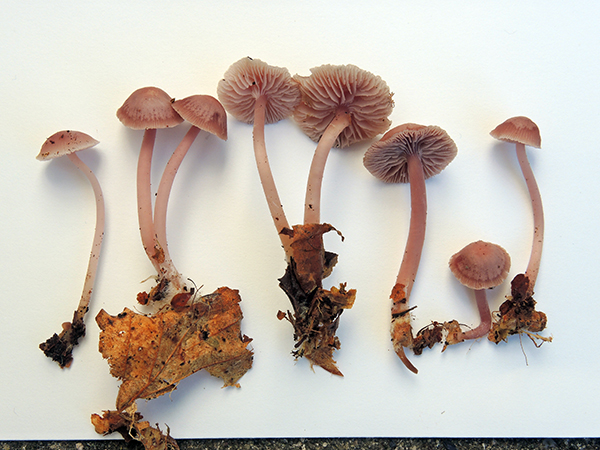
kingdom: Fungi
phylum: Basidiomycota
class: Agaricomycetes
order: Agaricales
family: Mycenaceae
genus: Mycena
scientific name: Mycena pearsoniana
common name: lillabrun huesvamp
